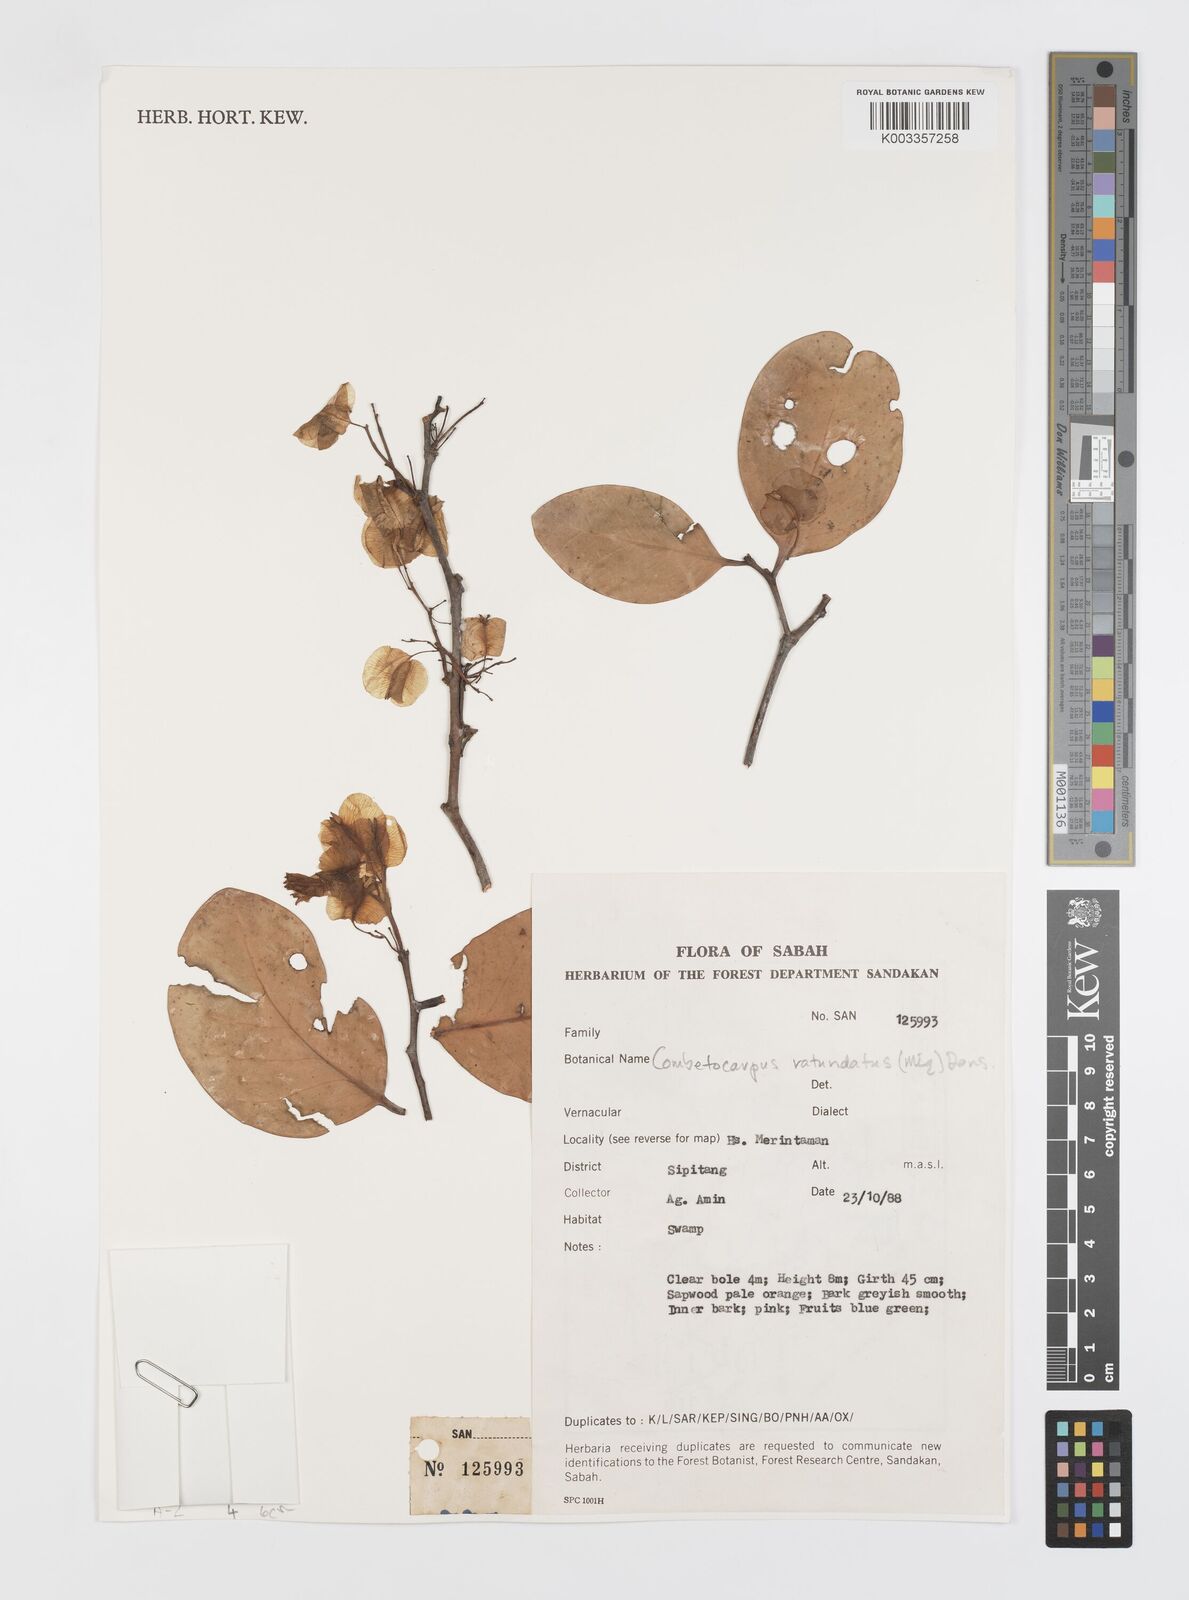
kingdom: Plantae
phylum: Tracheophyta
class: Magnoliopsida
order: Cucurbitales
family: Anisophylleaceae
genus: Combretocarpus
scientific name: Combretocarpus rotundatus
